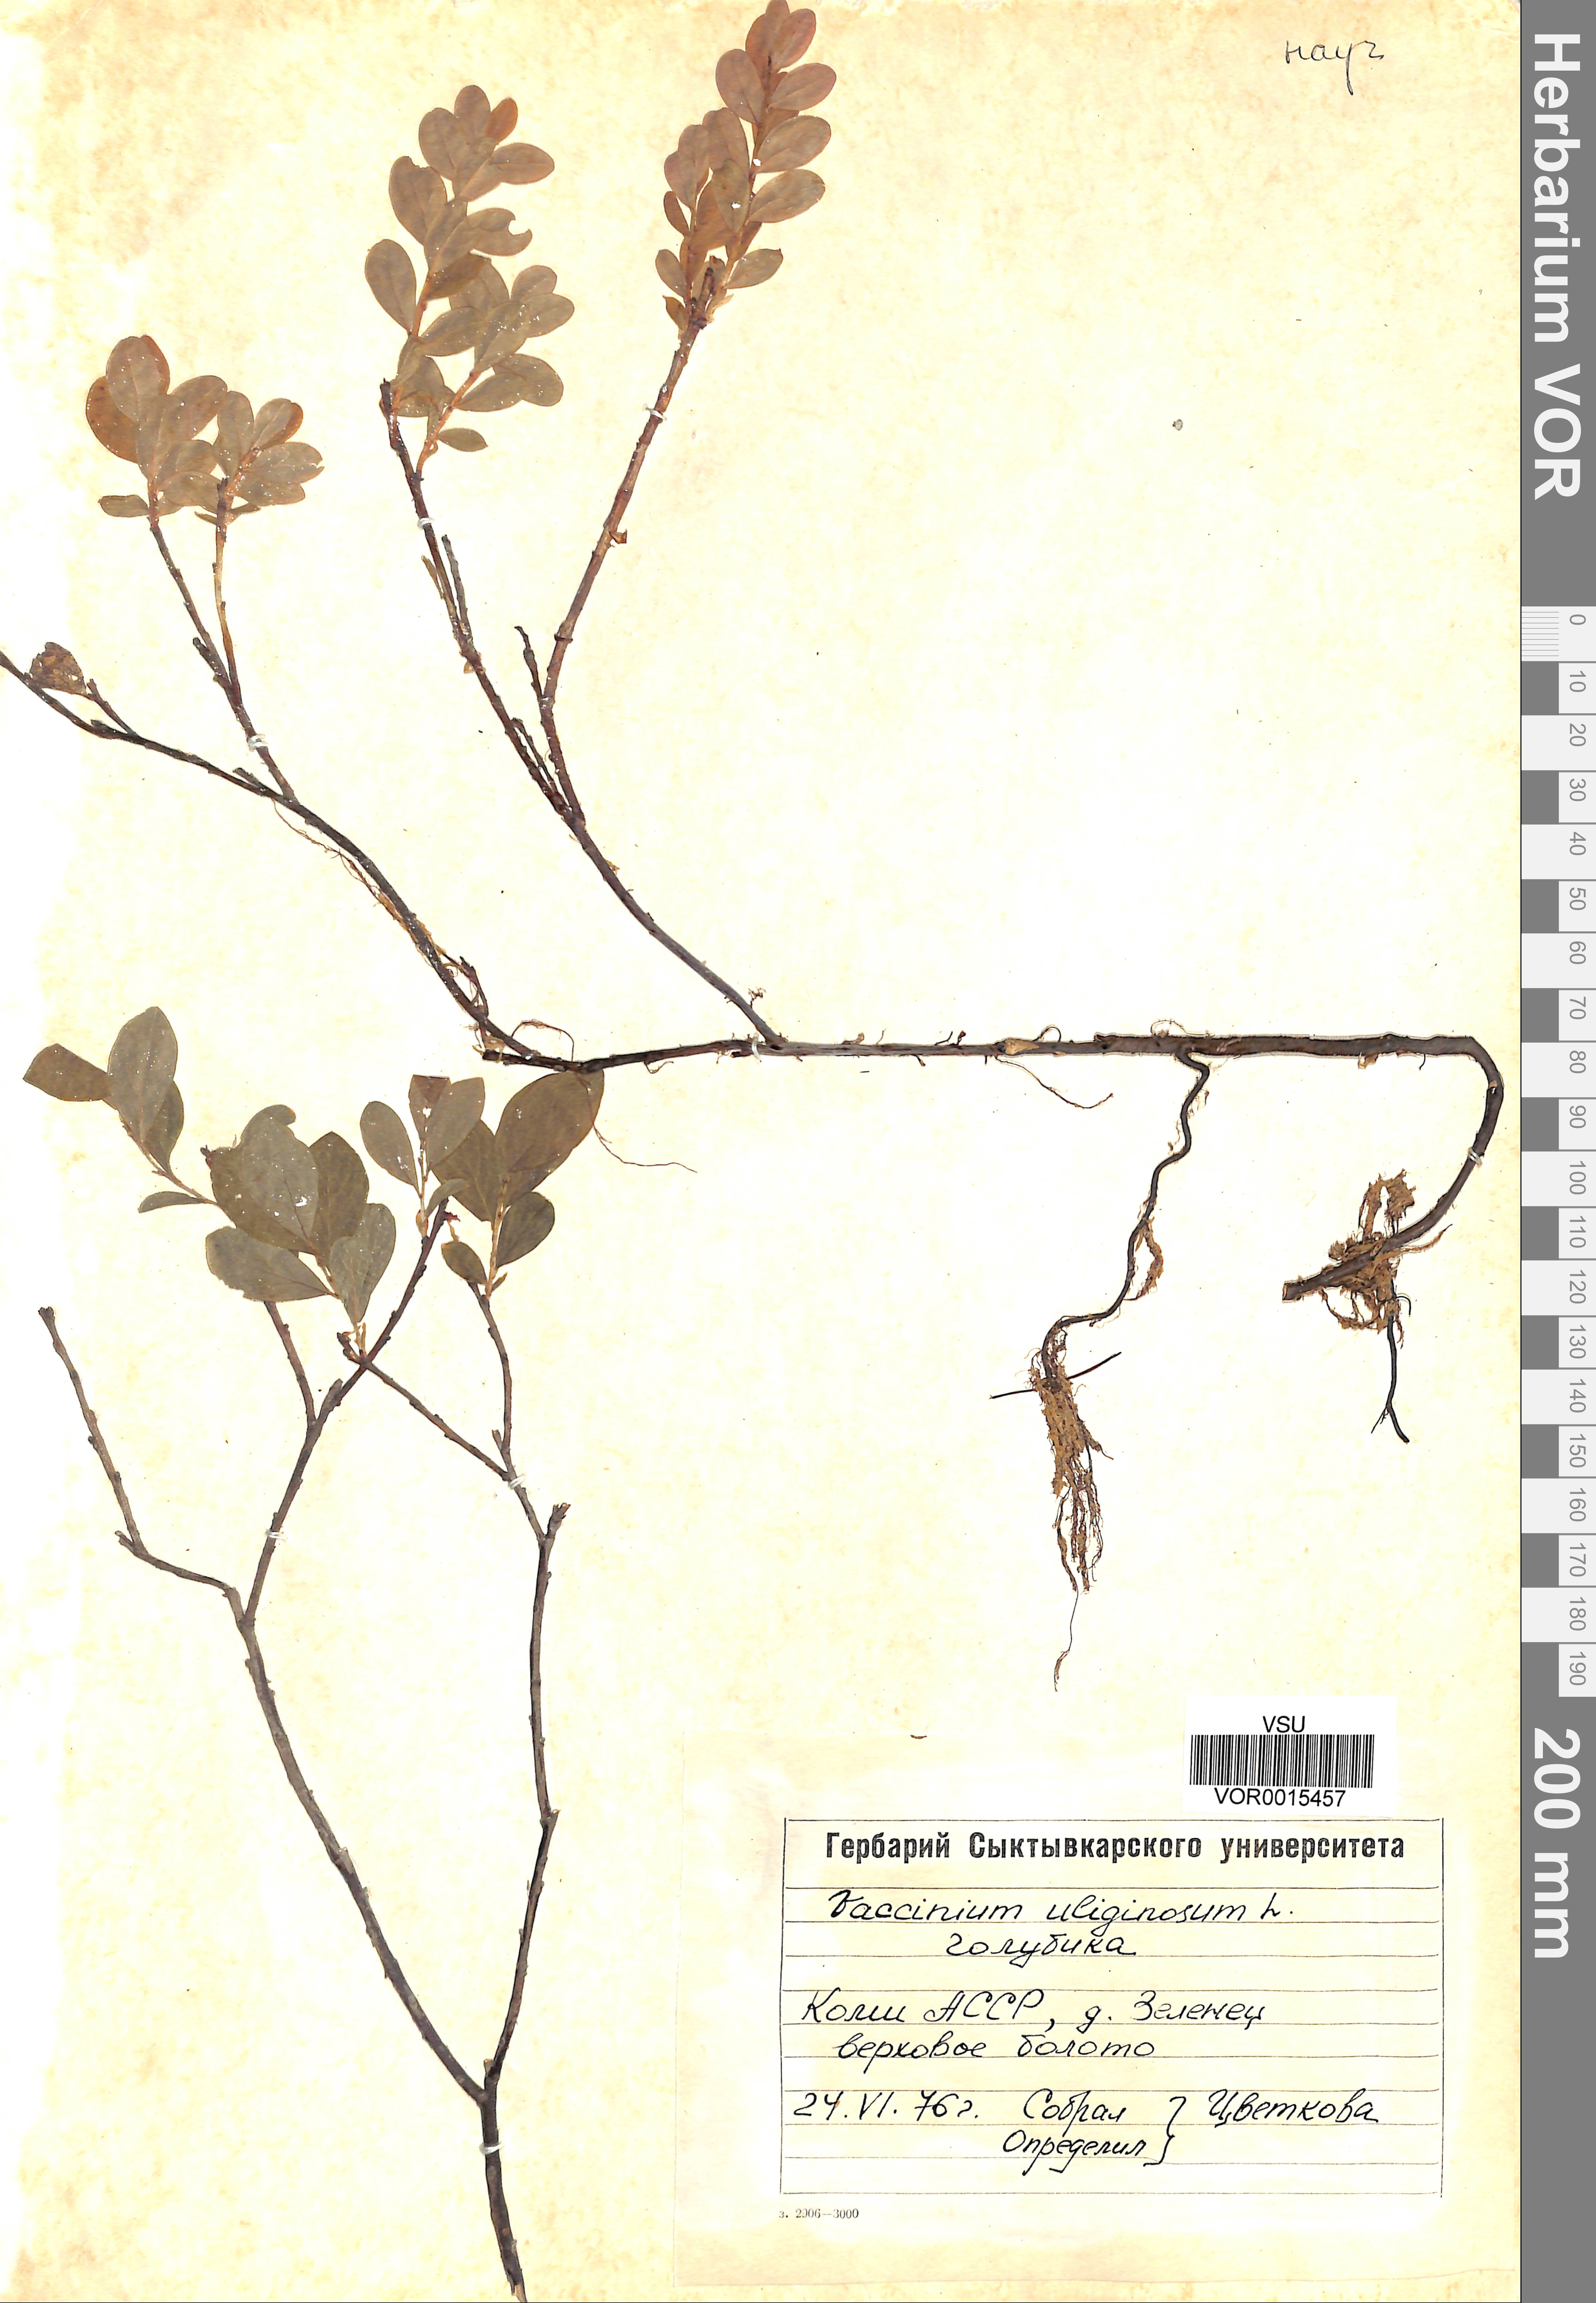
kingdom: Plantae
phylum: Tracheophyta
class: Magnoliopsida
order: Ericales
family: Ericaceae
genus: Vaccinium
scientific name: Vaccinium uliginosum
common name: Bog bilberry
